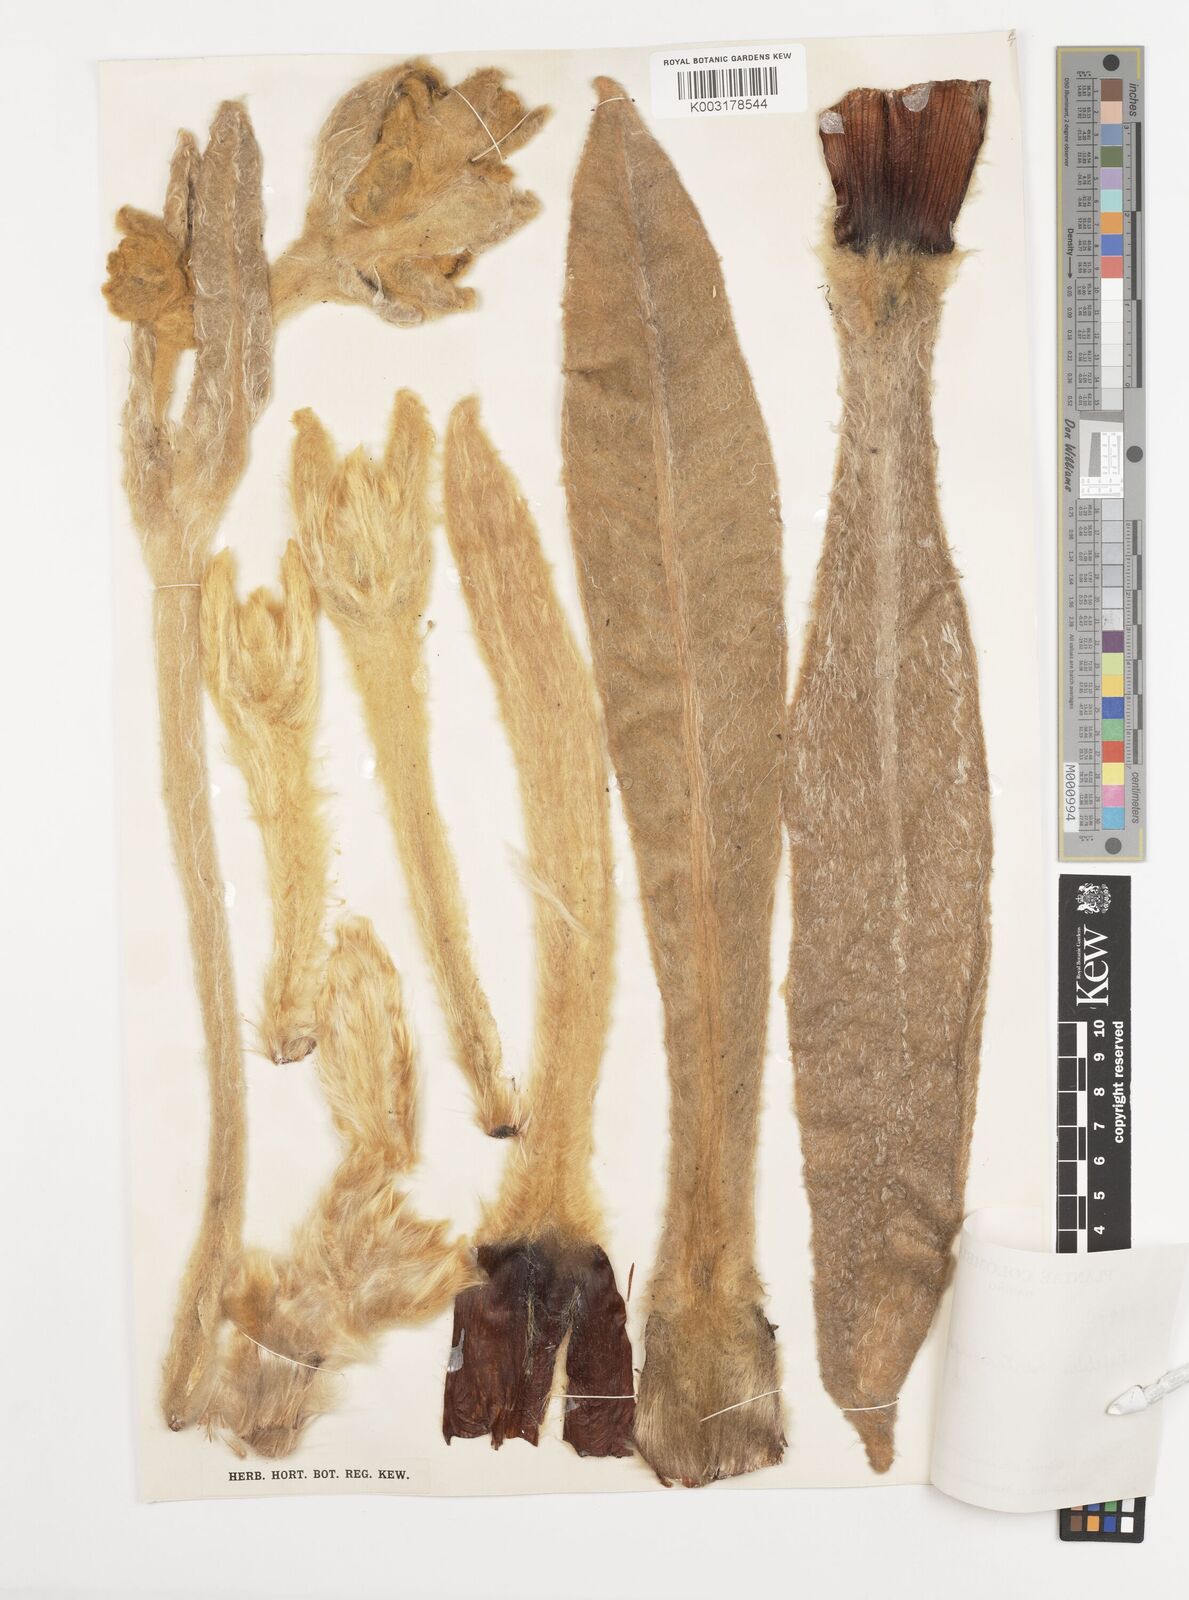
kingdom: Plantae
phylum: Tracheophyta
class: Magnoliopsida
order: Asterales
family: Asteraceae
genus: Espeletia
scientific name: Espeletia hartwegiana
